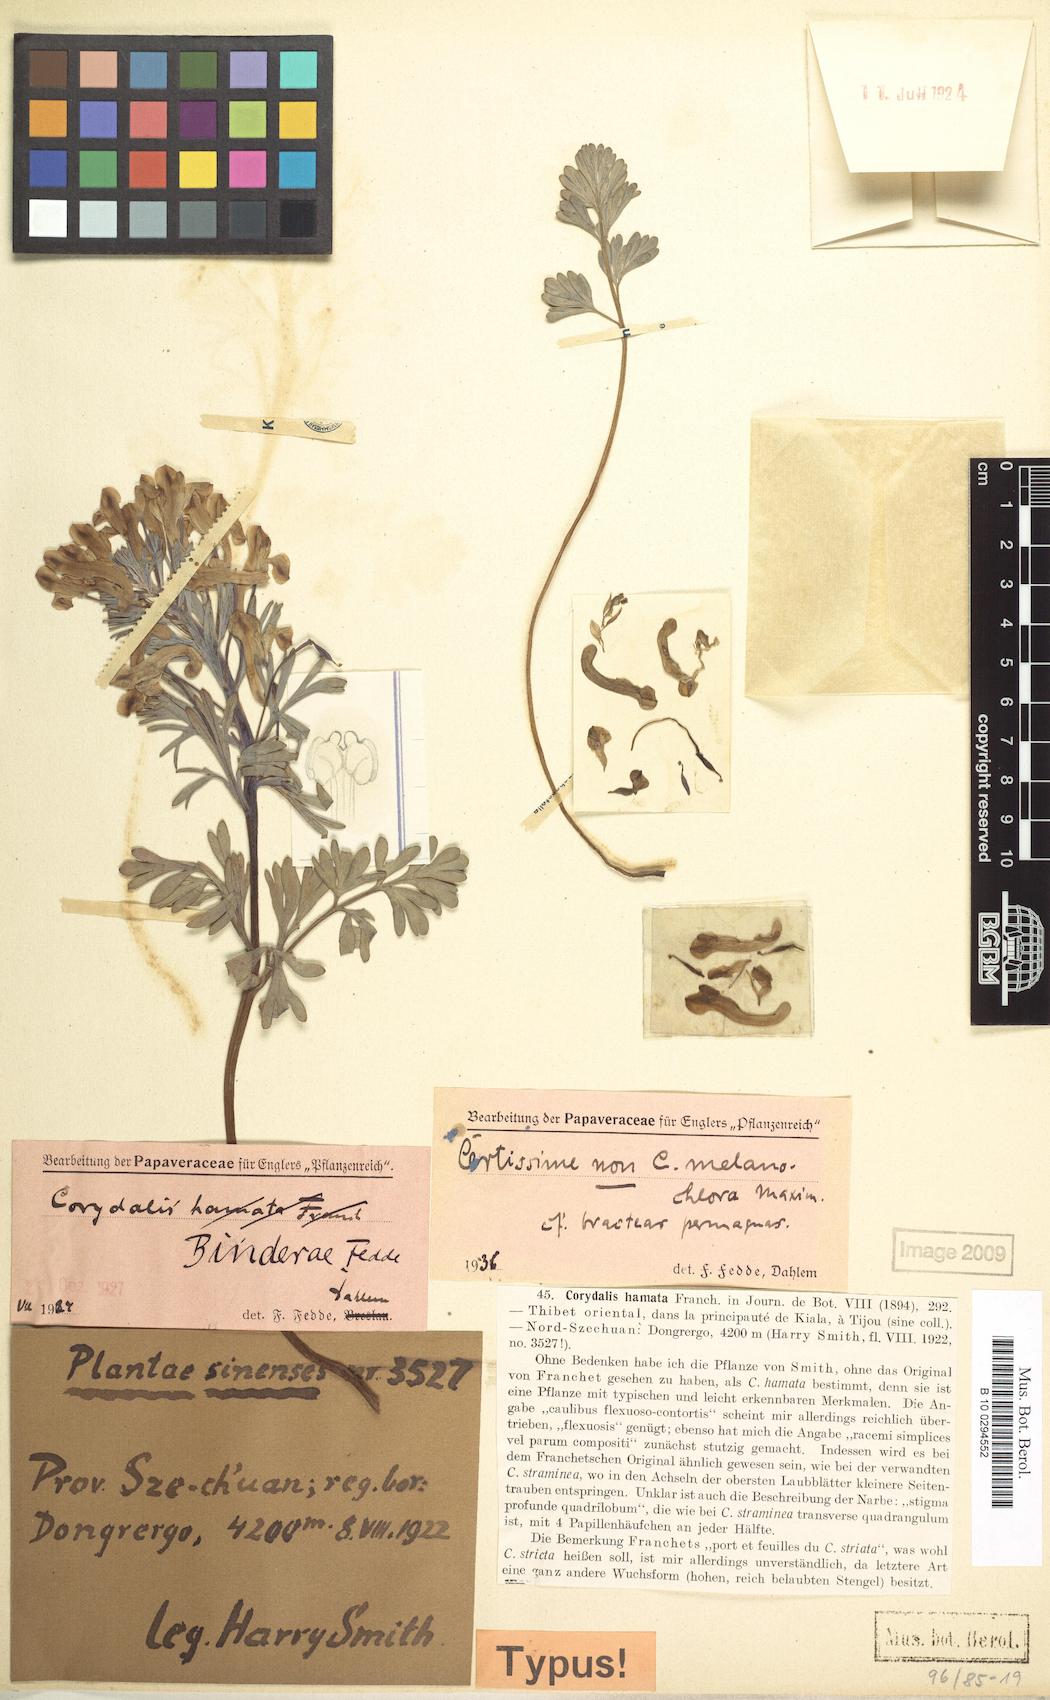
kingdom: Plantae
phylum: Tracheophyta
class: Magnoliopsida
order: Ranunculales
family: Papaveraceae
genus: Corydalis
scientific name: Corydalis melanochlora
